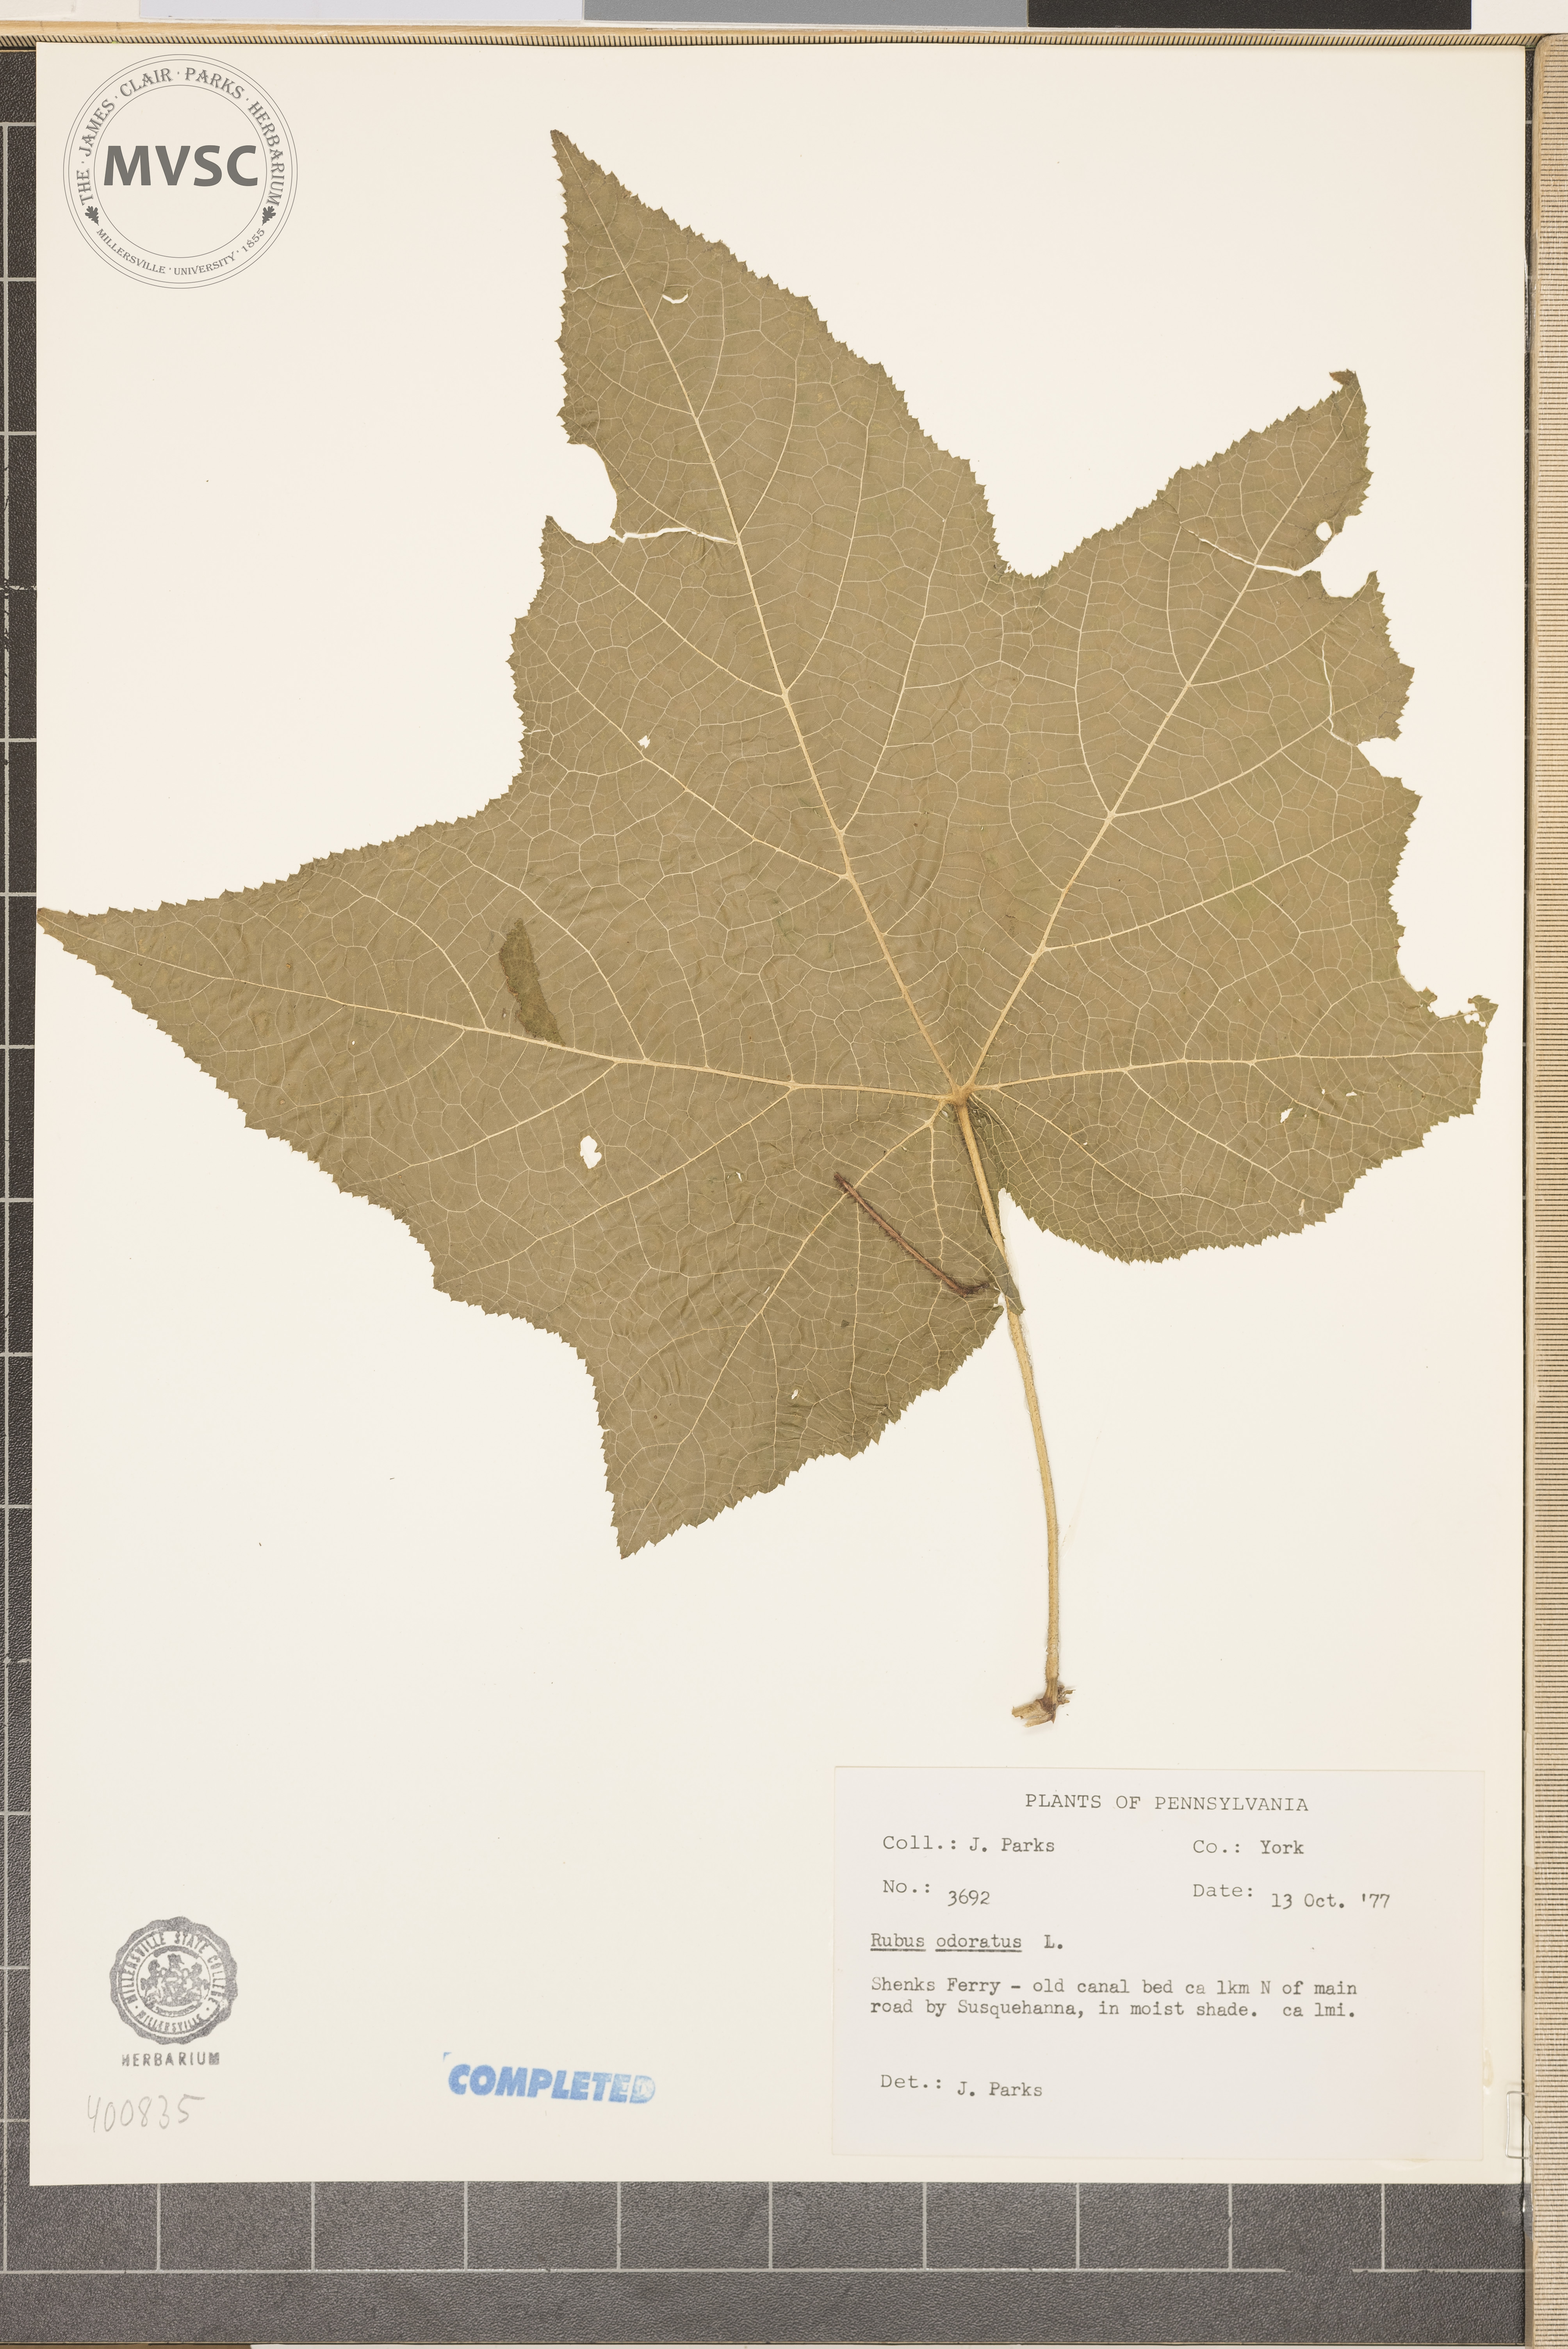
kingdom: Plantae
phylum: Tracheophyta
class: Magnoliopsida
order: Rosales
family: Rosaceae
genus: Rubus
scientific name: Rubus odoratus
